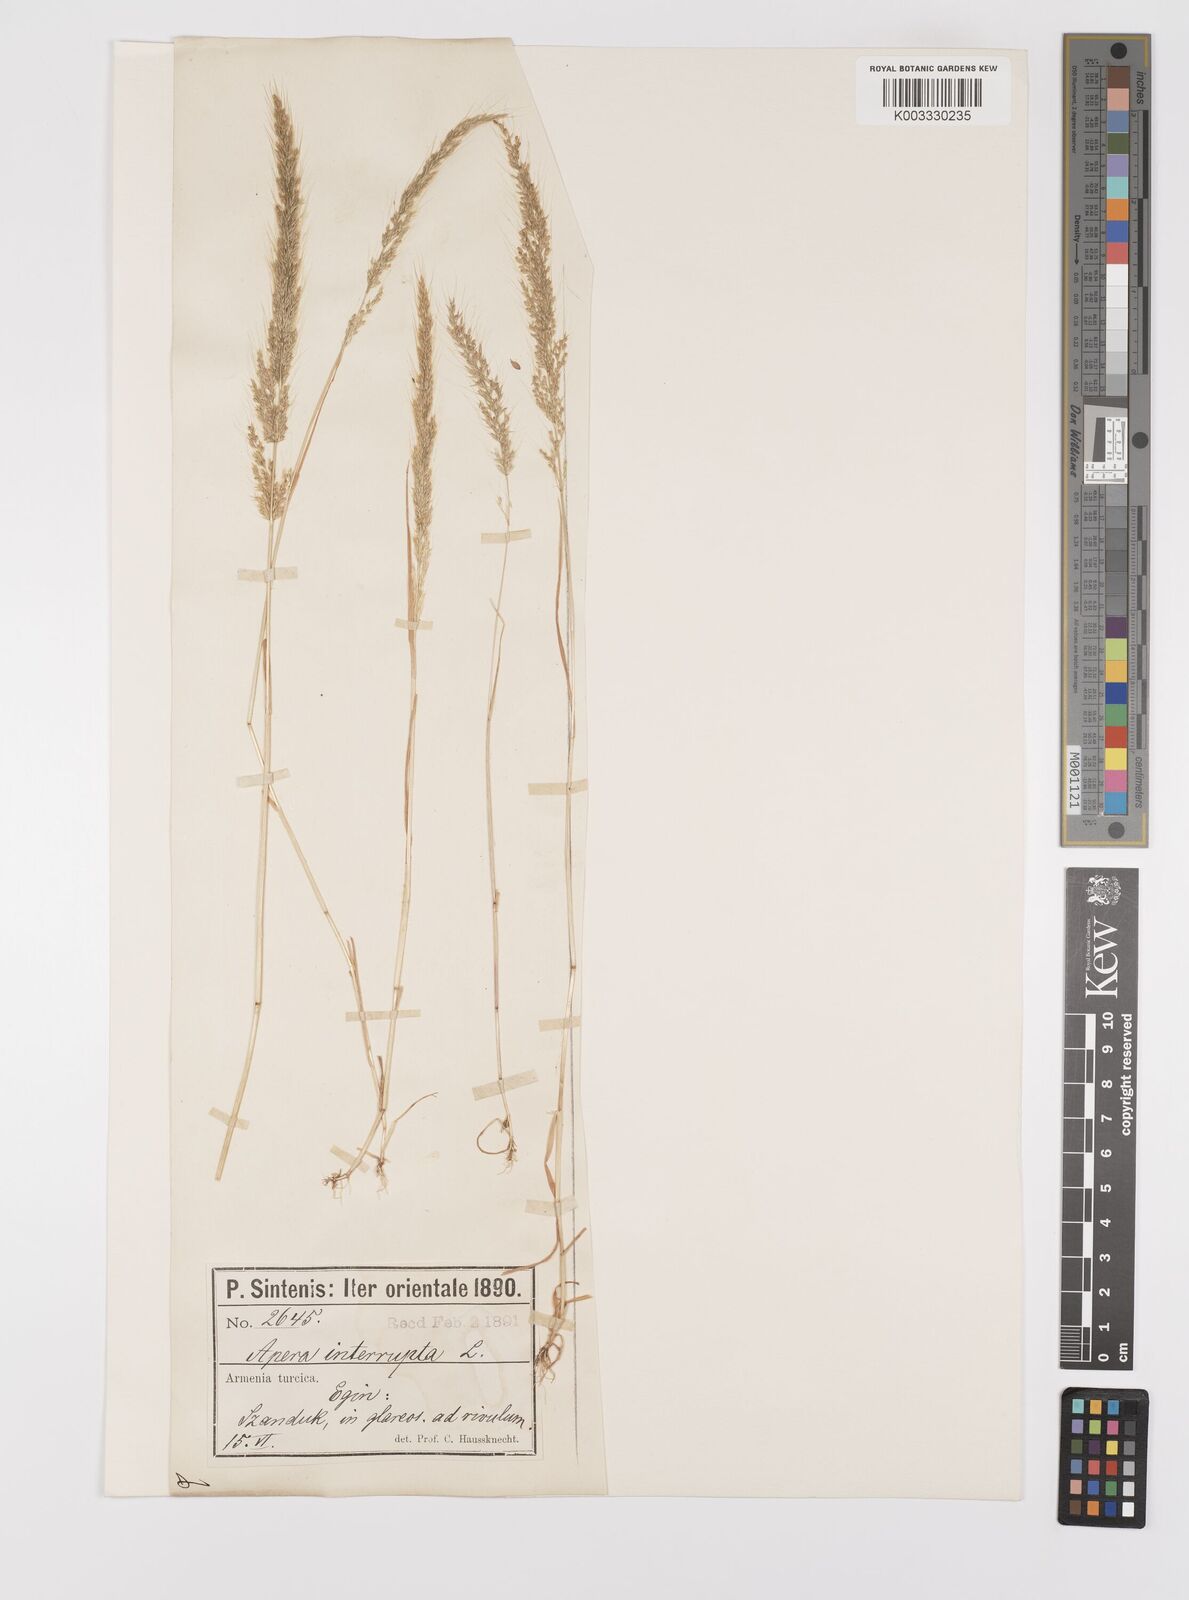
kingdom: Plantae
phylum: Tracheophyta
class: Liliopsida
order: Poales
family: Poaceae
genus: Apera
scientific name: Apera intermedia
